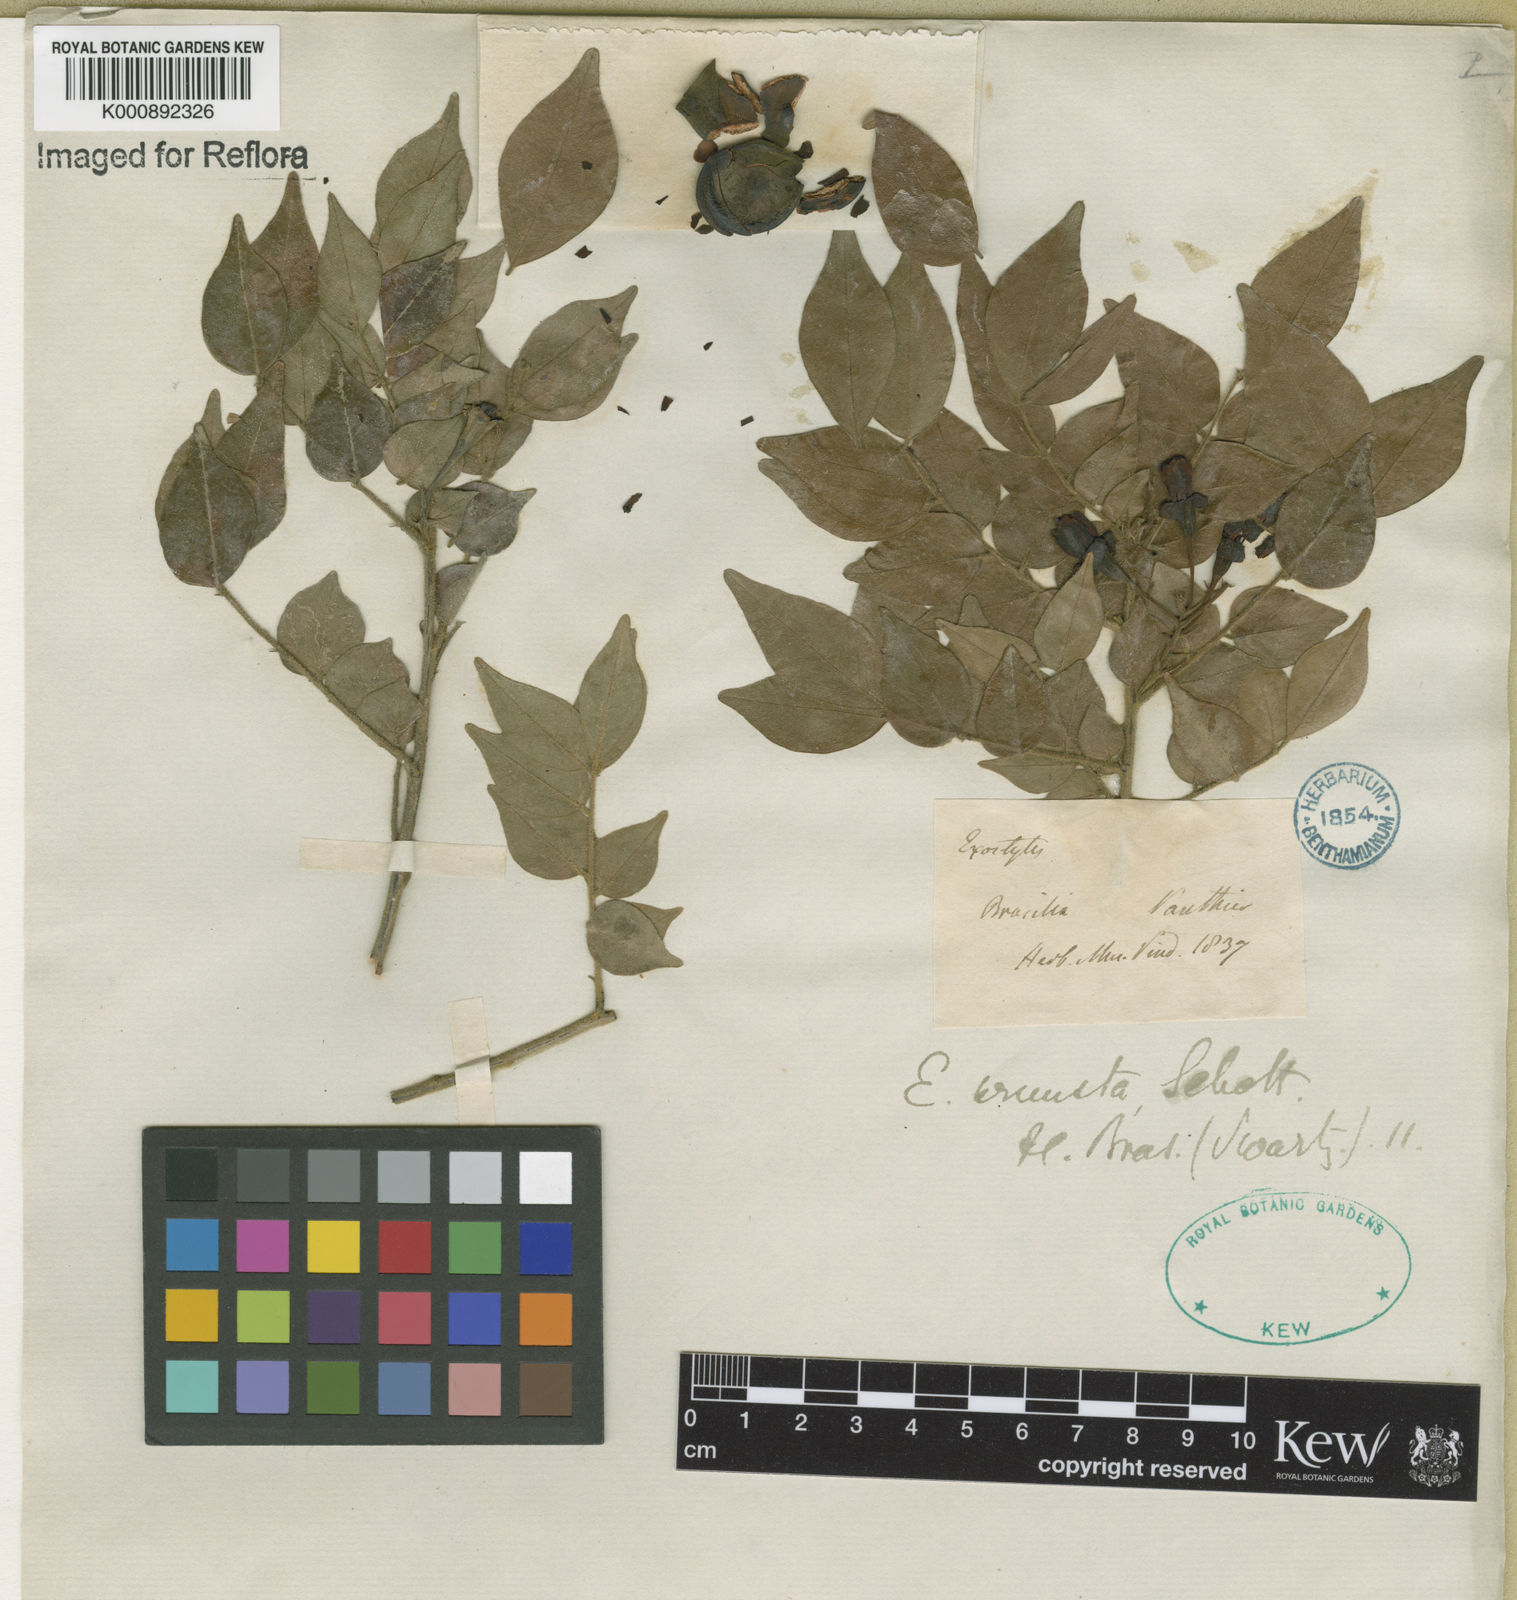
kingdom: Plantae
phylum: Tracheophyta
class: Magnoliopsida
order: Fabales
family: Fabaceae
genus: Exostyles
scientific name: Exostyles venusta
